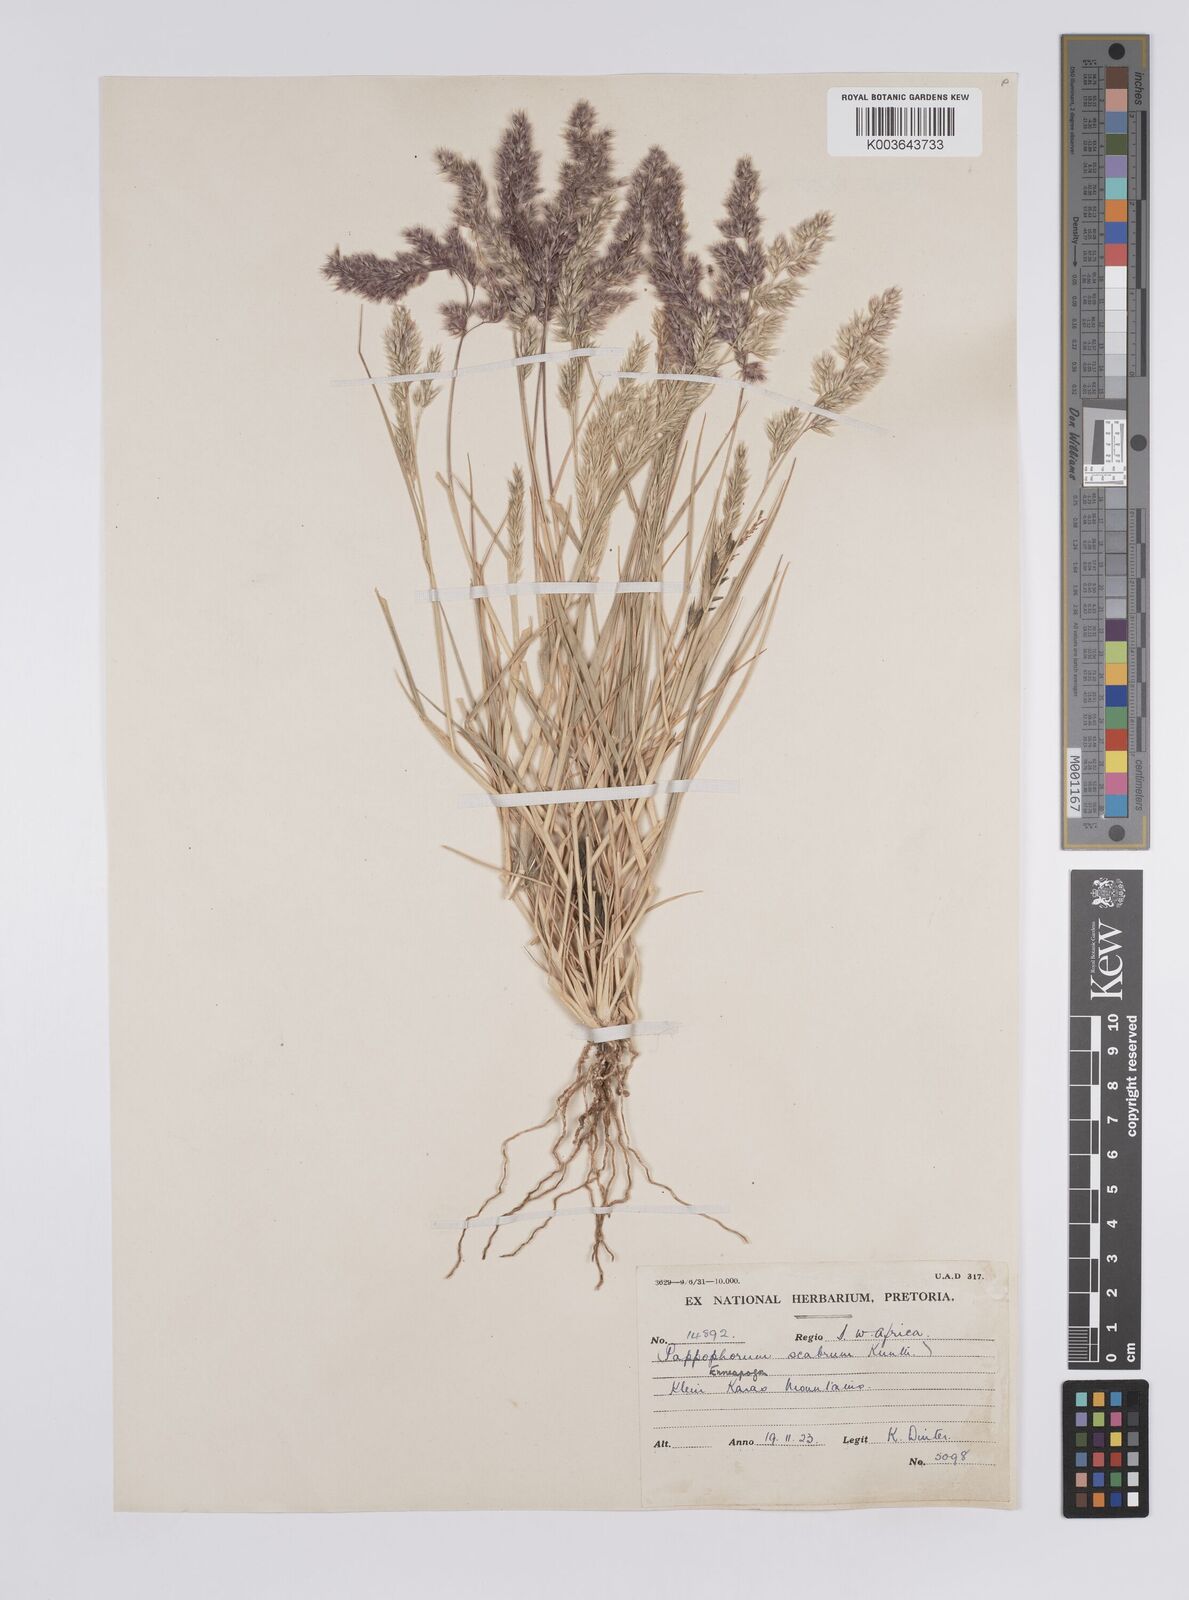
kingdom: Plantae
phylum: Tracheophyta
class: Liliopsida
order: Poales
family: Poaceae
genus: Enneapogon
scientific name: Enneapogon scaber
